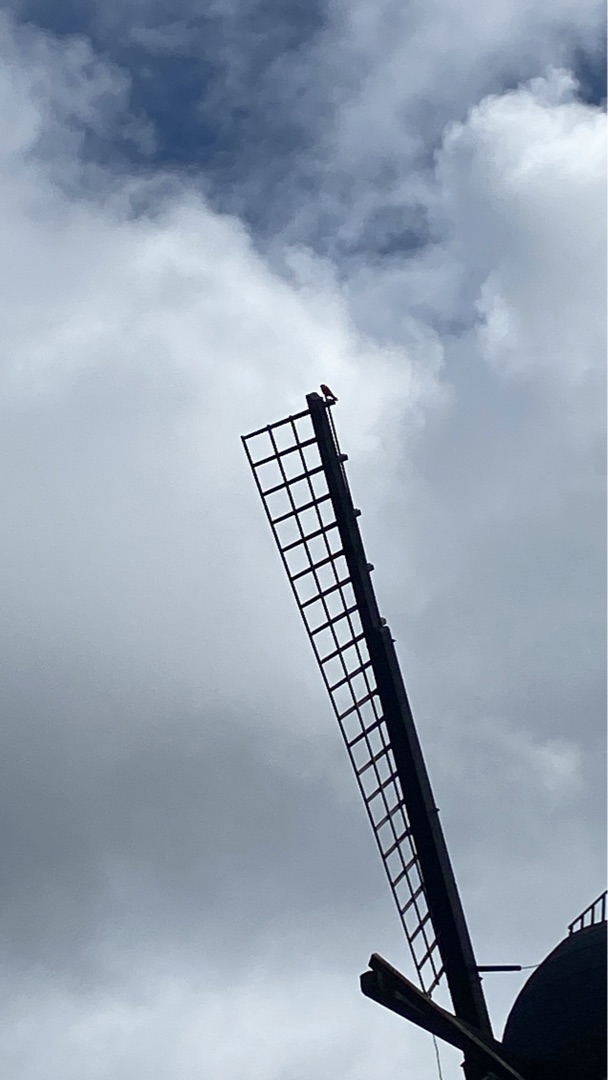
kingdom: Animalia
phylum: Chordata
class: Aves
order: Falconiformes
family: Falconidae
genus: Falco
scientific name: Falco tinnunculus
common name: Tårnfalk
